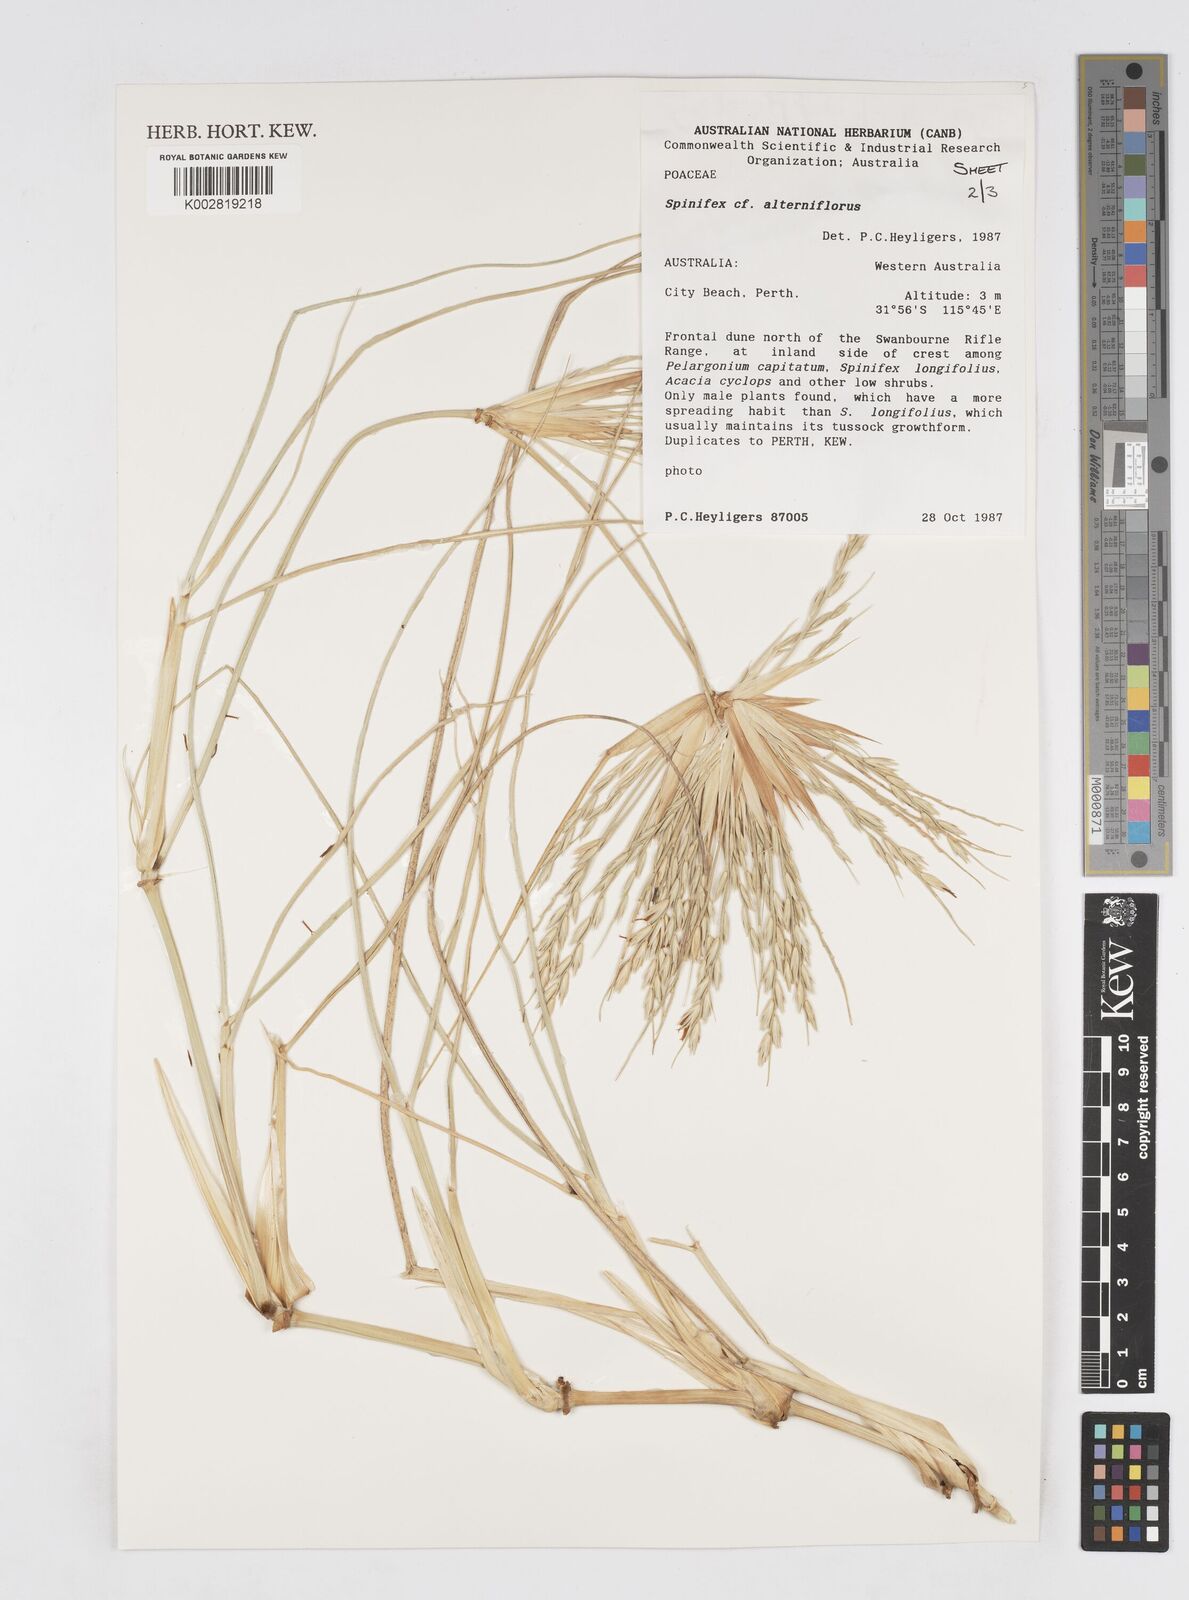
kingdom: Plantae
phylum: Tracheophyta
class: Liliopsida
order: Poales
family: Poaceae
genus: Spinifex
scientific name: Spinifex alterniflorus
